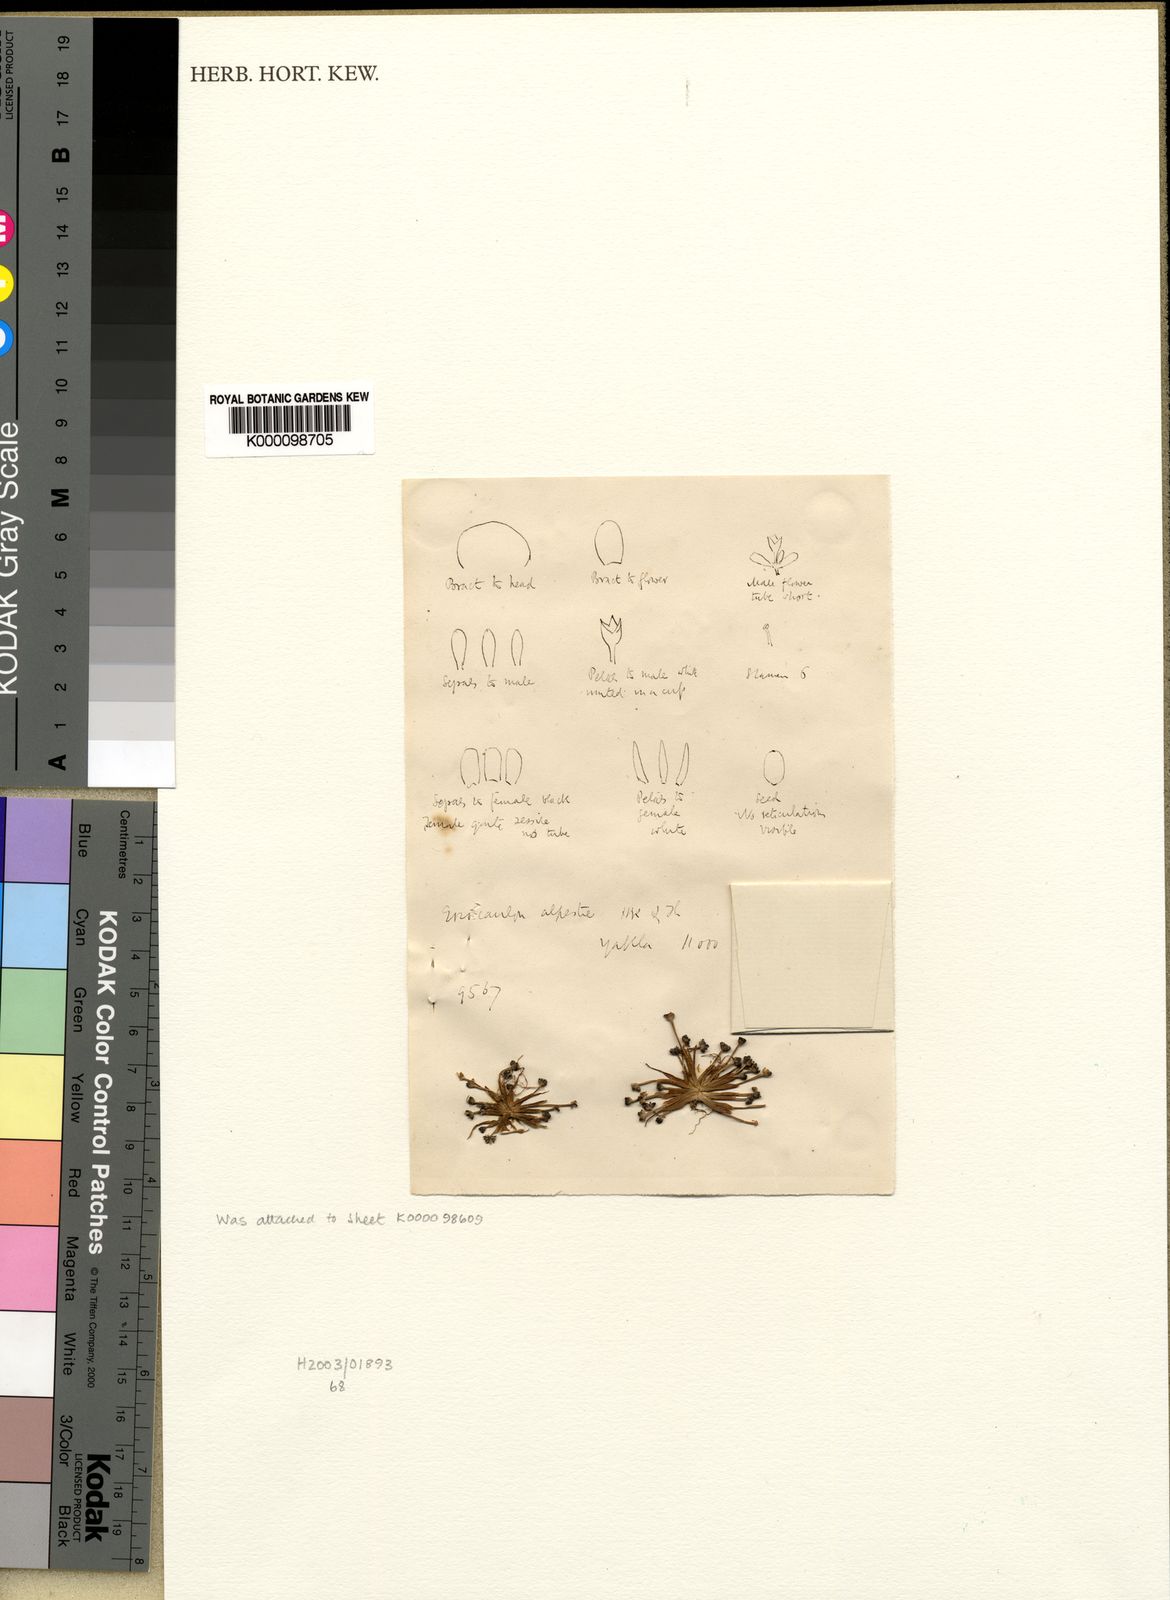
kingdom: Plantae
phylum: Tracheophyta
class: Liliopsida
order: Poales
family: Eriocaulaceae
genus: Eriocaulon
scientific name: Eriocaulon
